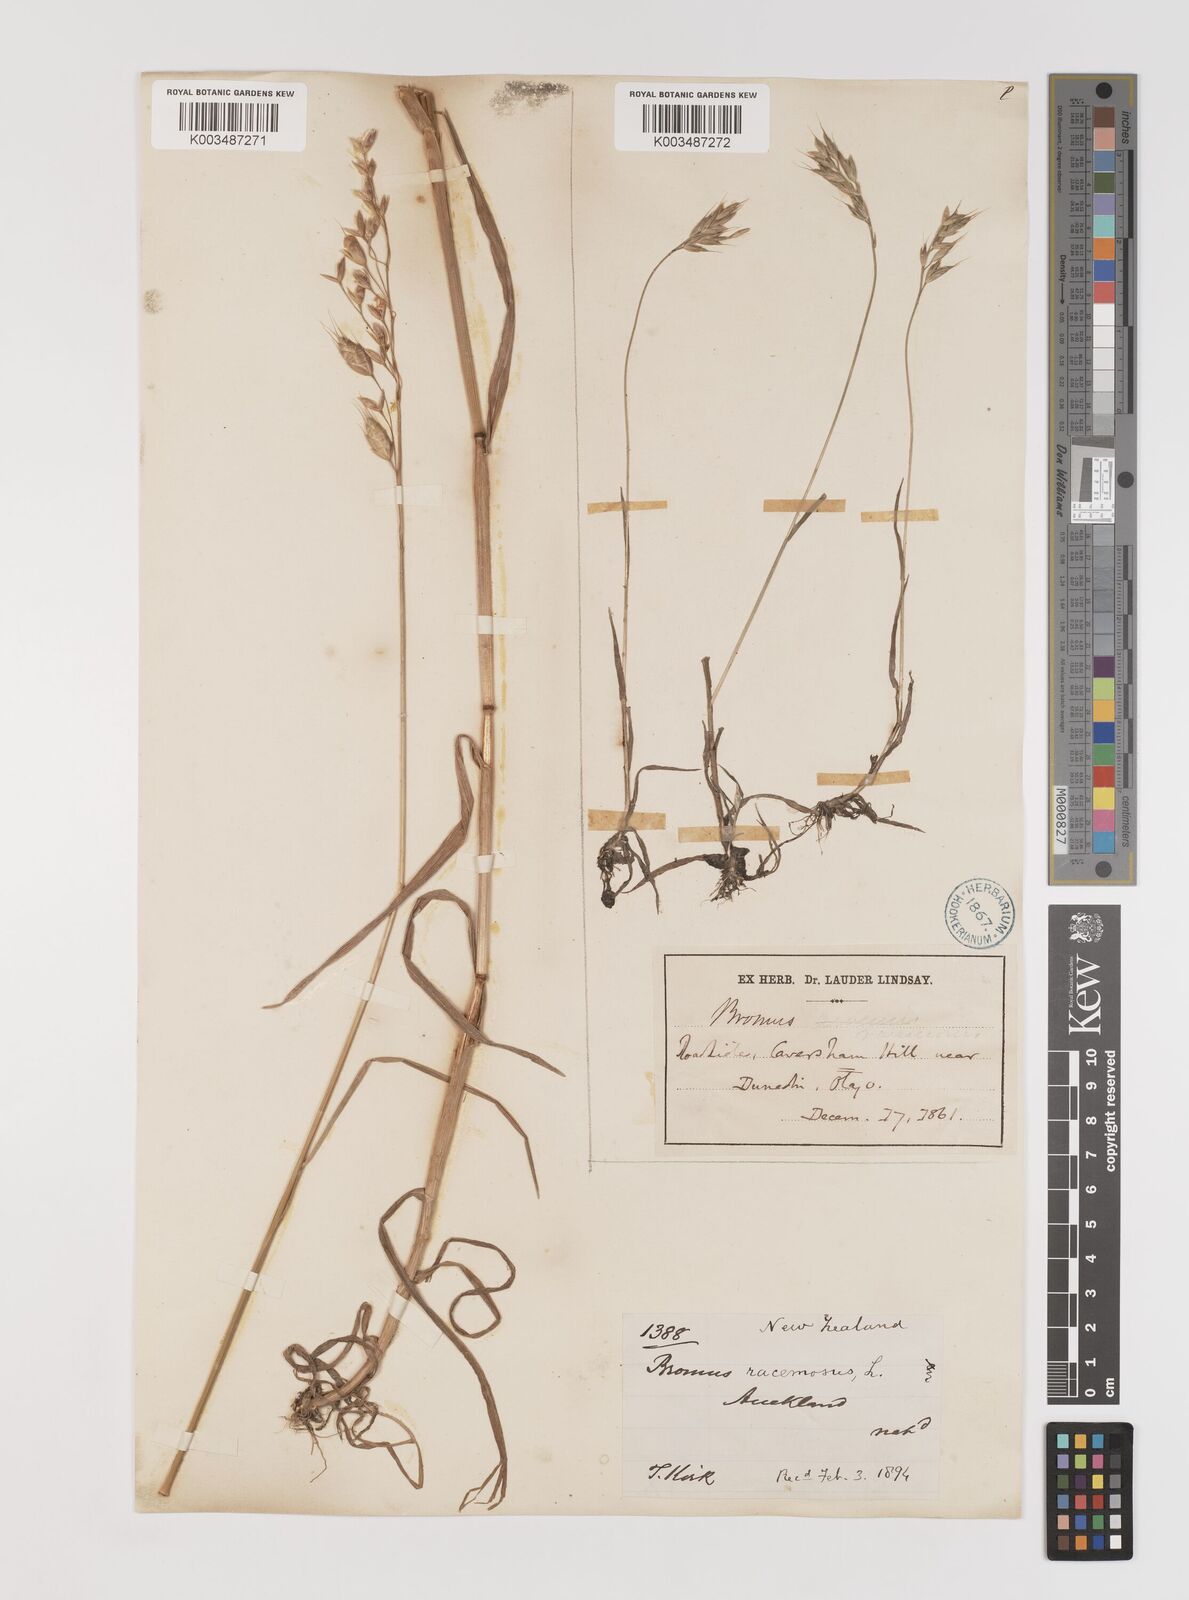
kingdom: Plantae
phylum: Tracheophyta
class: Liliopsida
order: Poales
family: Poaceae
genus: Bromus
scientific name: Bromus secalinus
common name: Rye brome
